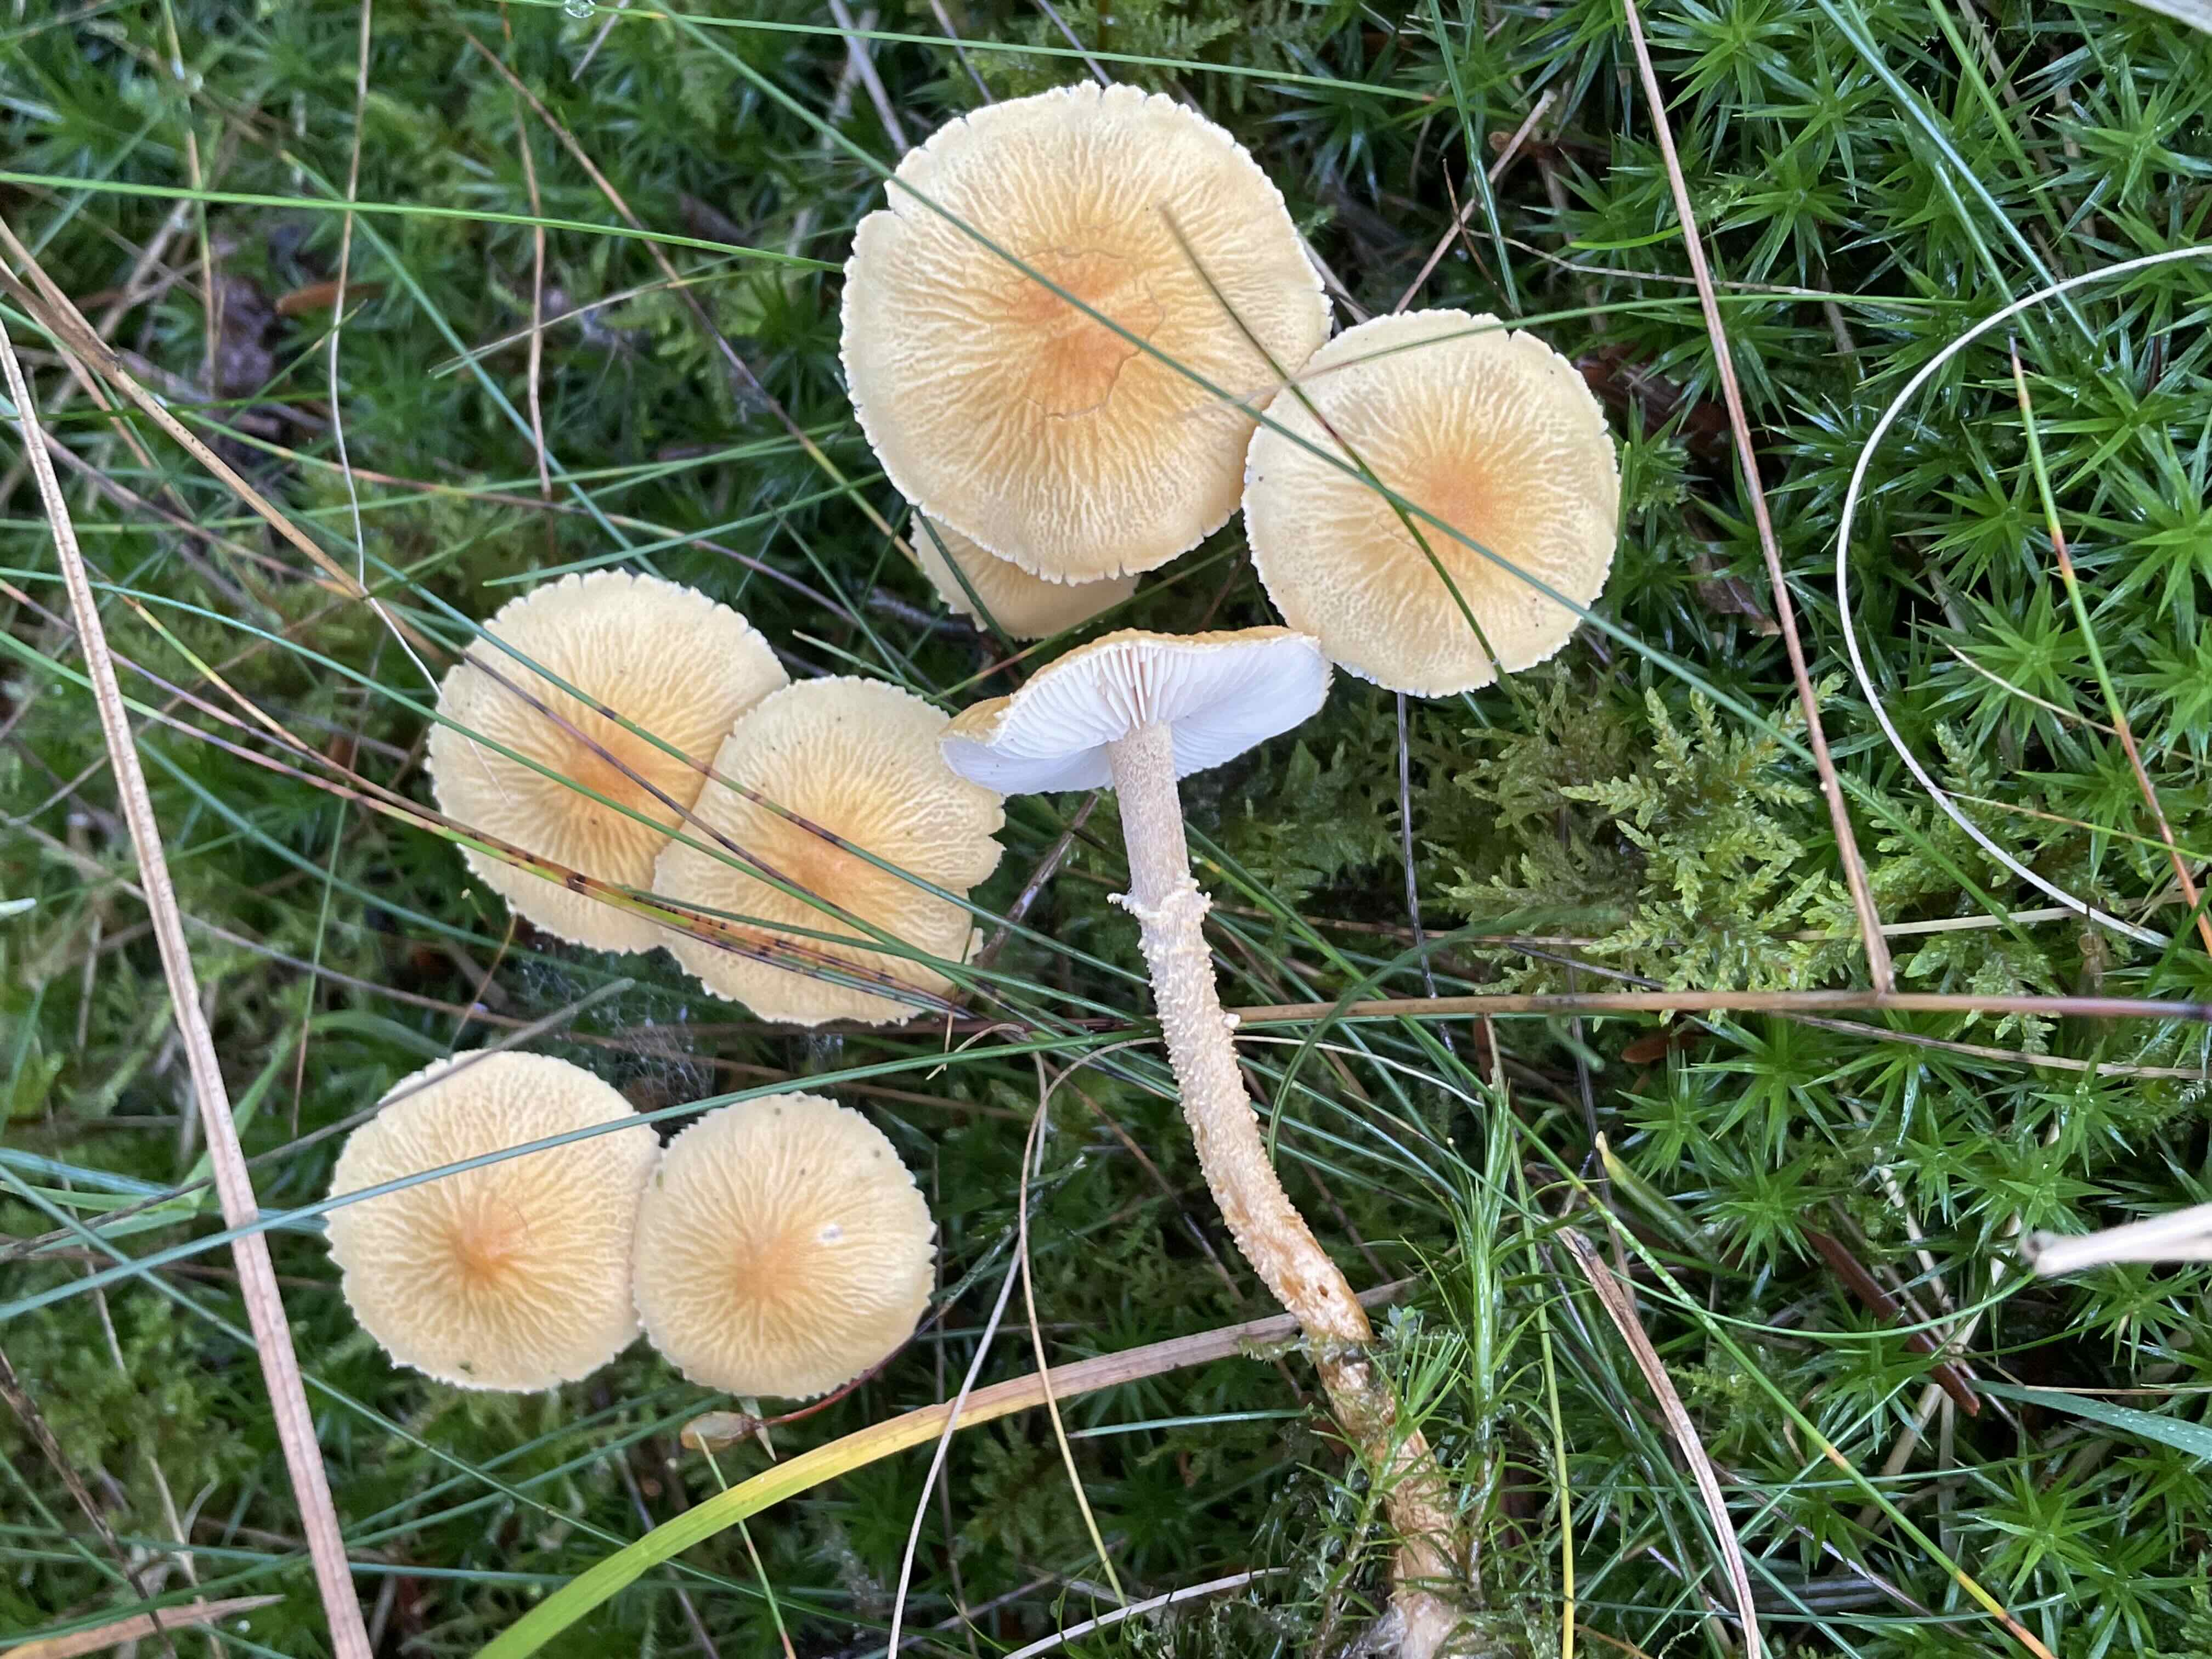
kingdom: Fungi
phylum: Basidiomycota
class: Agaricomycetes
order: Agaricales
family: Tricholomataceae
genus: Cystoderma
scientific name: Cystoderma amianthinum
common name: okkergul grynhat
